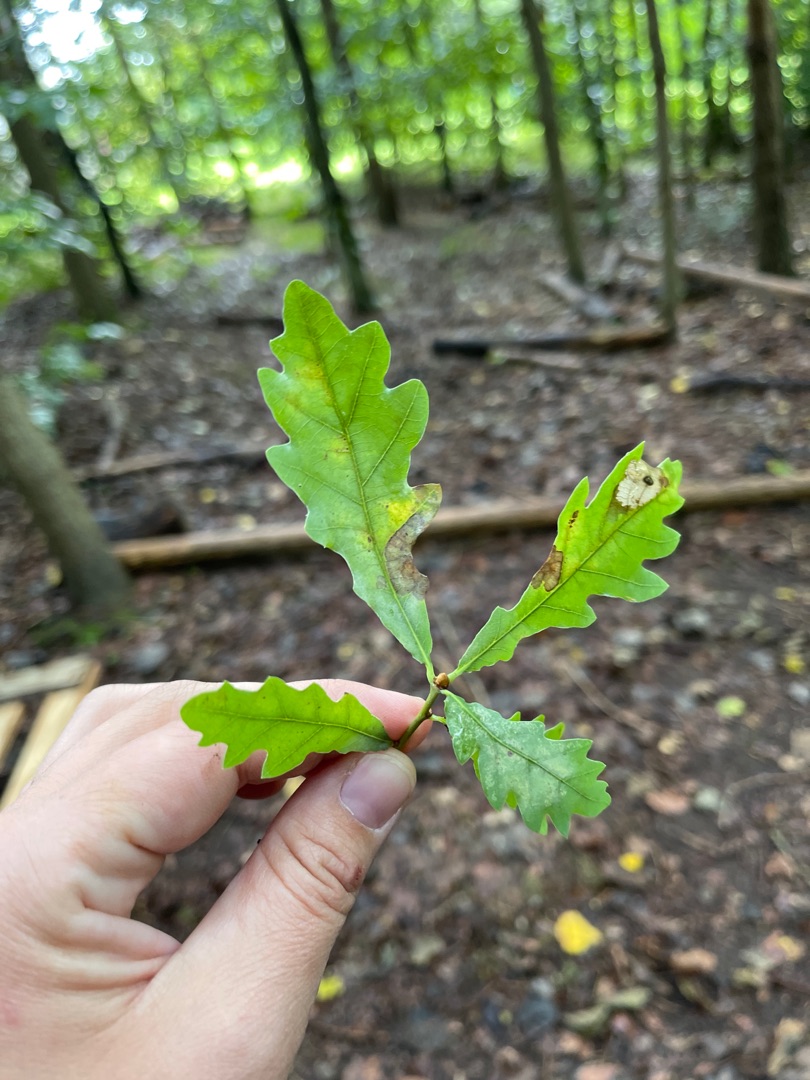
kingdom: Plantae
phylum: Tracheophyta
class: Magnoliopsida
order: Fagales
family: Fagaceae
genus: Quercus
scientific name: Quercus robur
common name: Stilk-eg/almindelig eg
